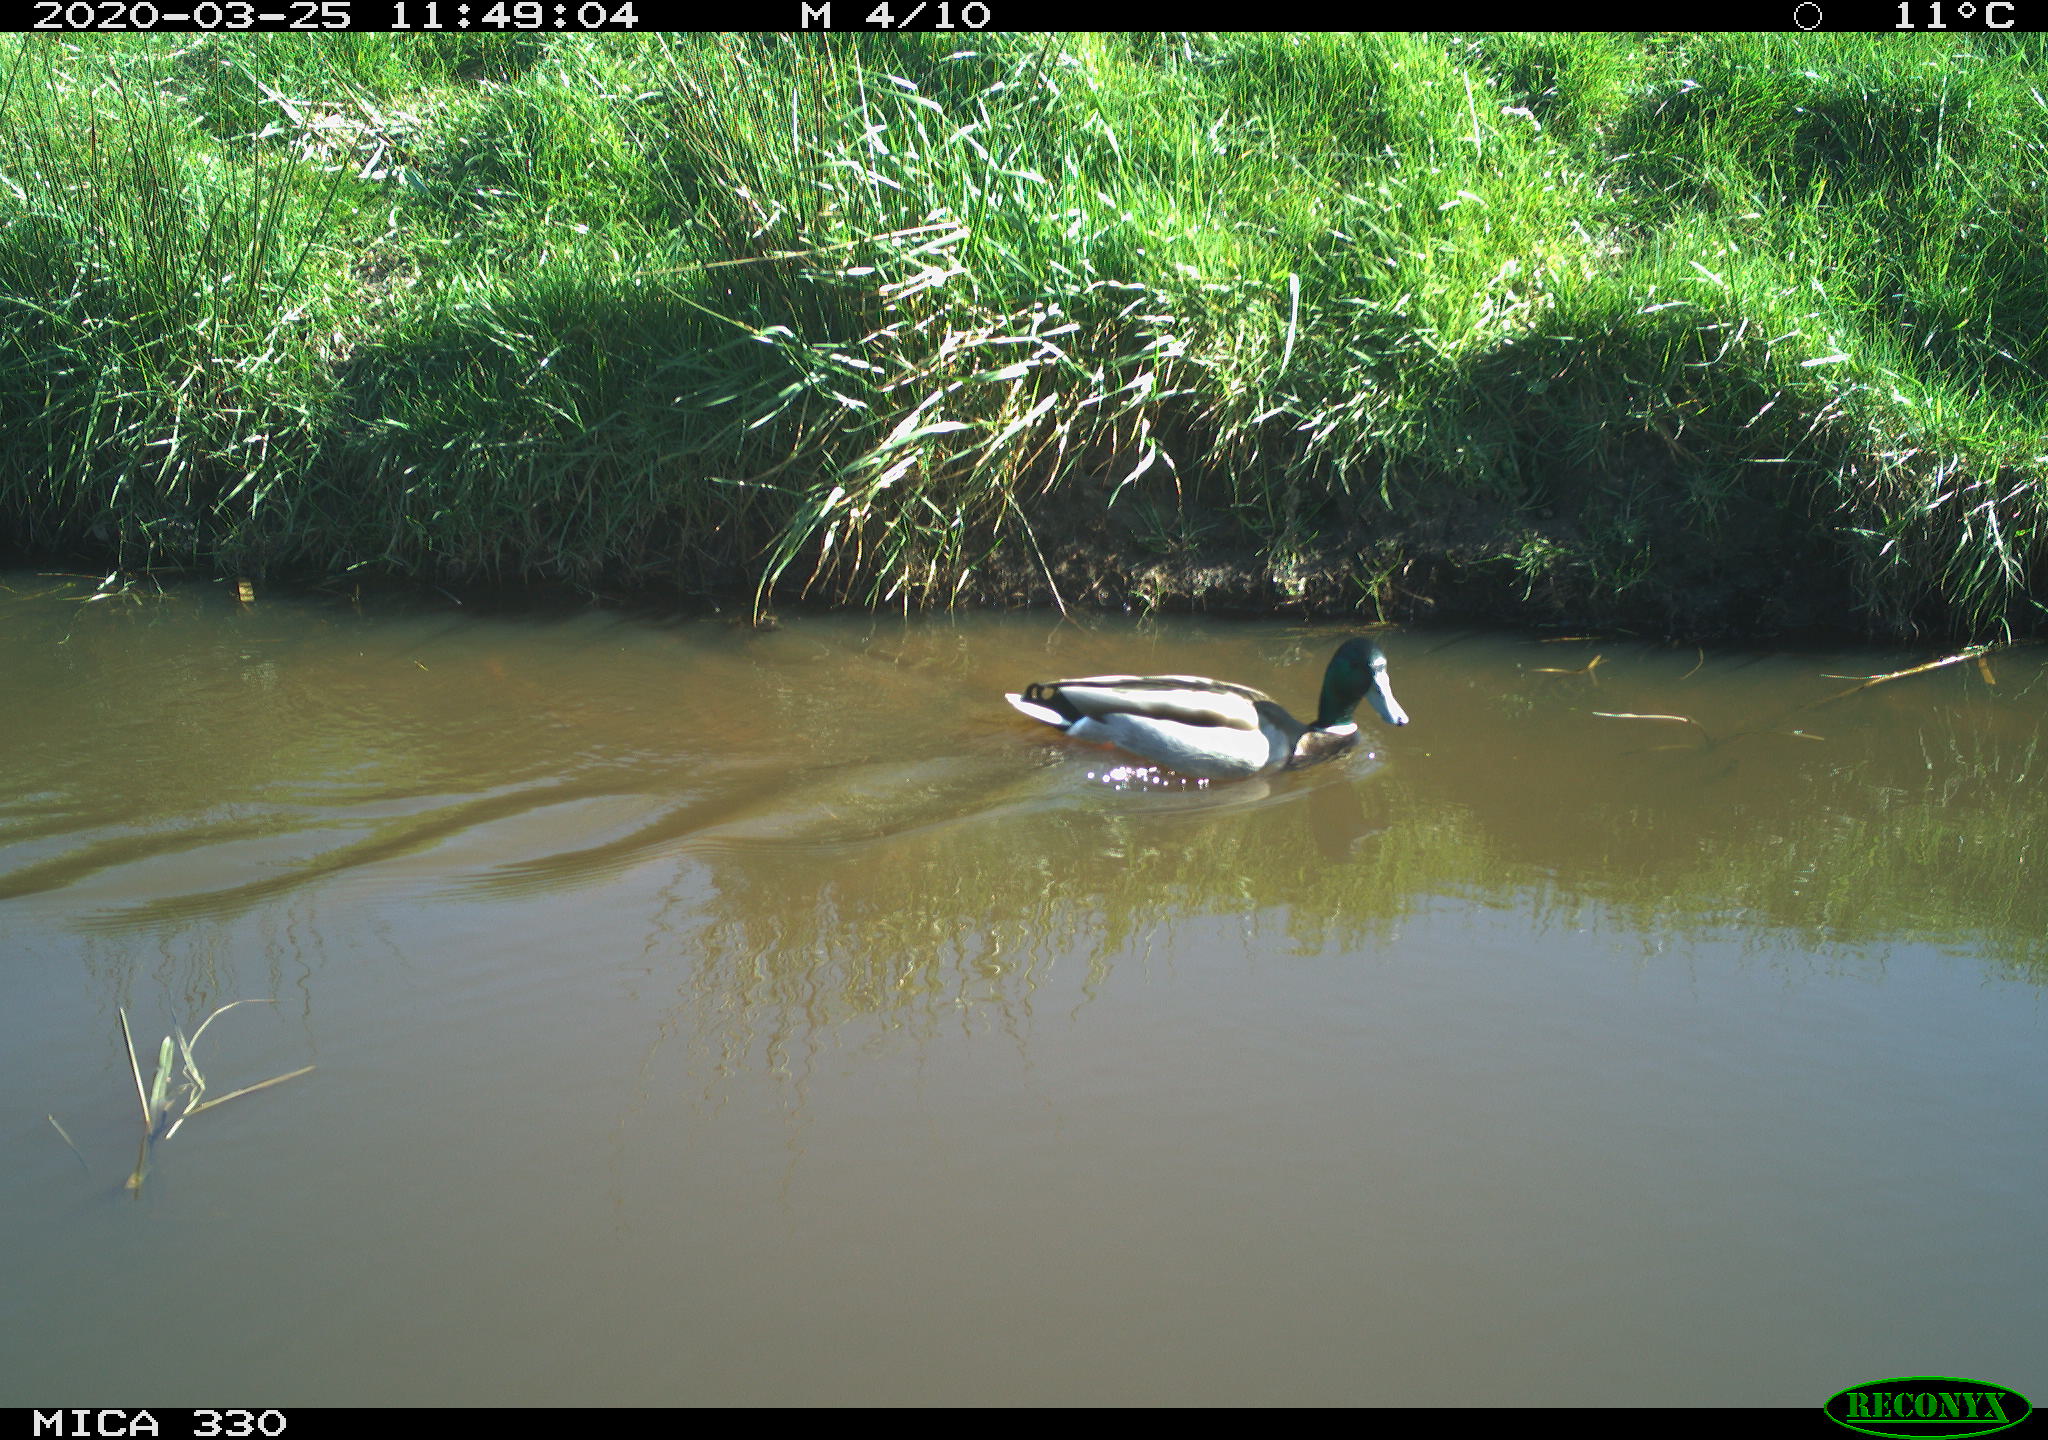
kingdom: Animalia
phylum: Chordata
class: Aves
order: Anseriformes
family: Anatidae
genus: Anas
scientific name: Anas platyrhynchos
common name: Mallard
